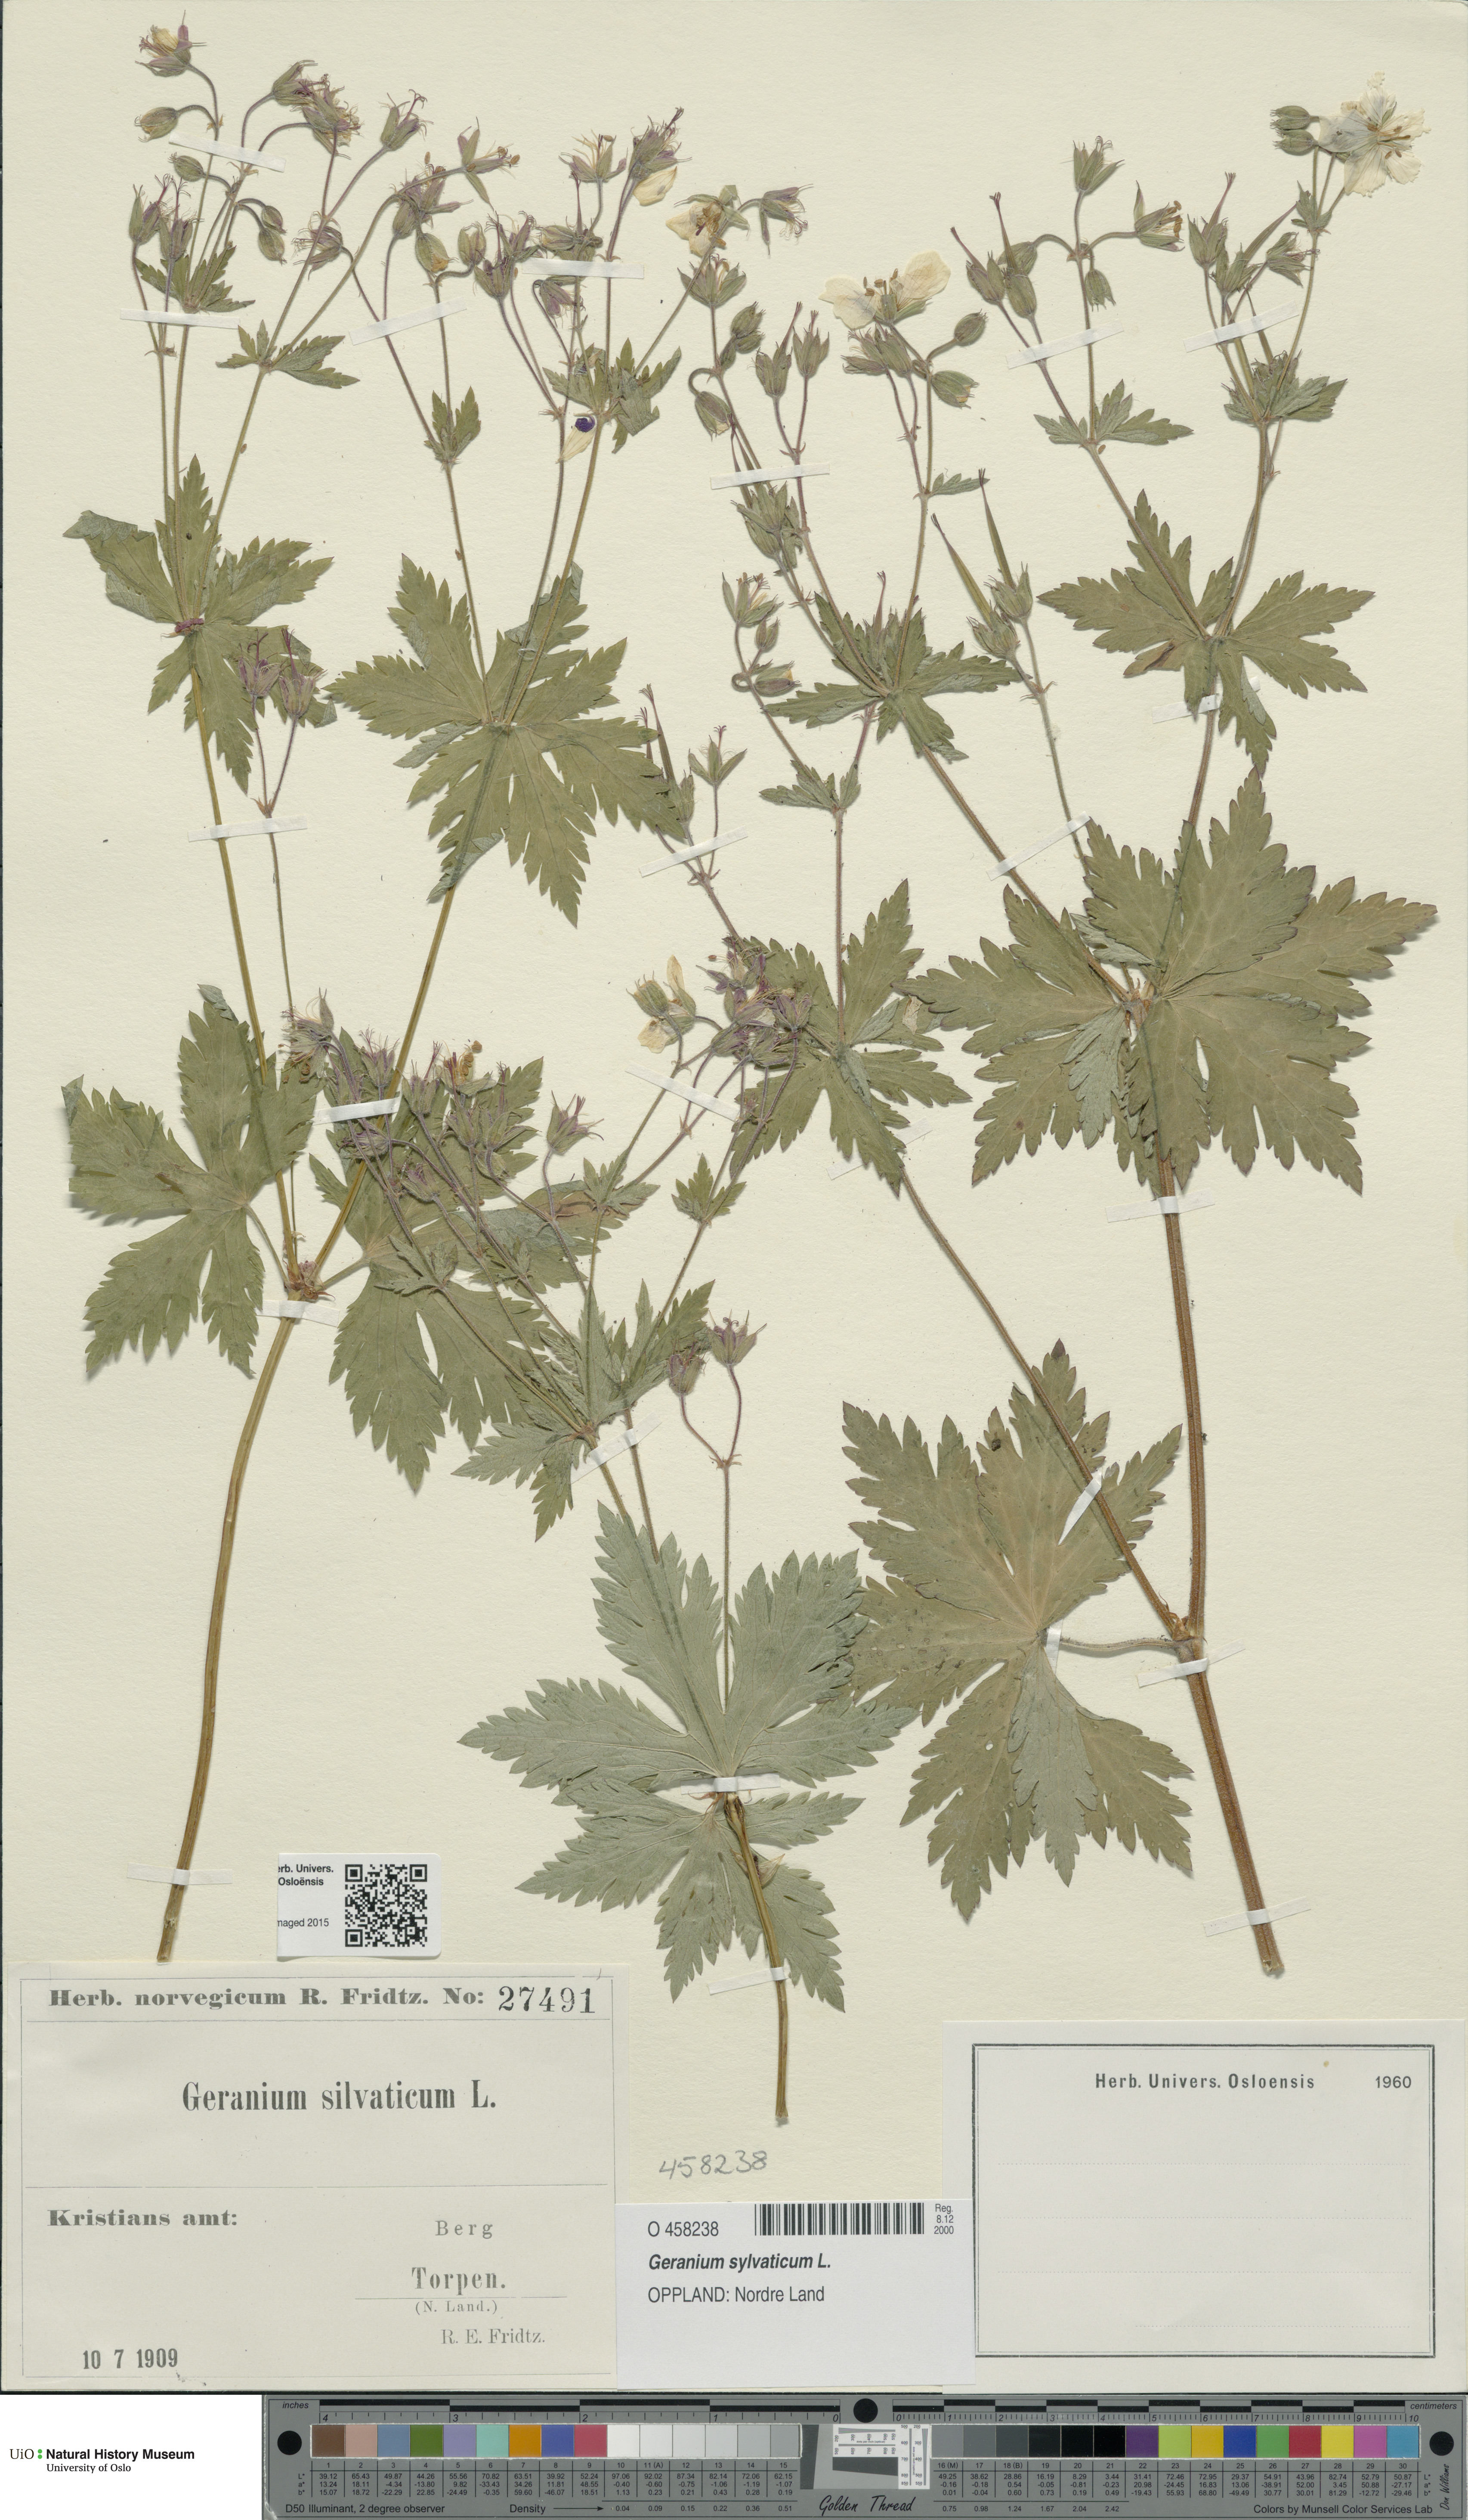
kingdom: Plantae
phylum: Tracheophyta
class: Magnoliopsida
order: Geraniales
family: Geraniaceae
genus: Geranium
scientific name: Geranium sylvaticum
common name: Wood crane's-bill
